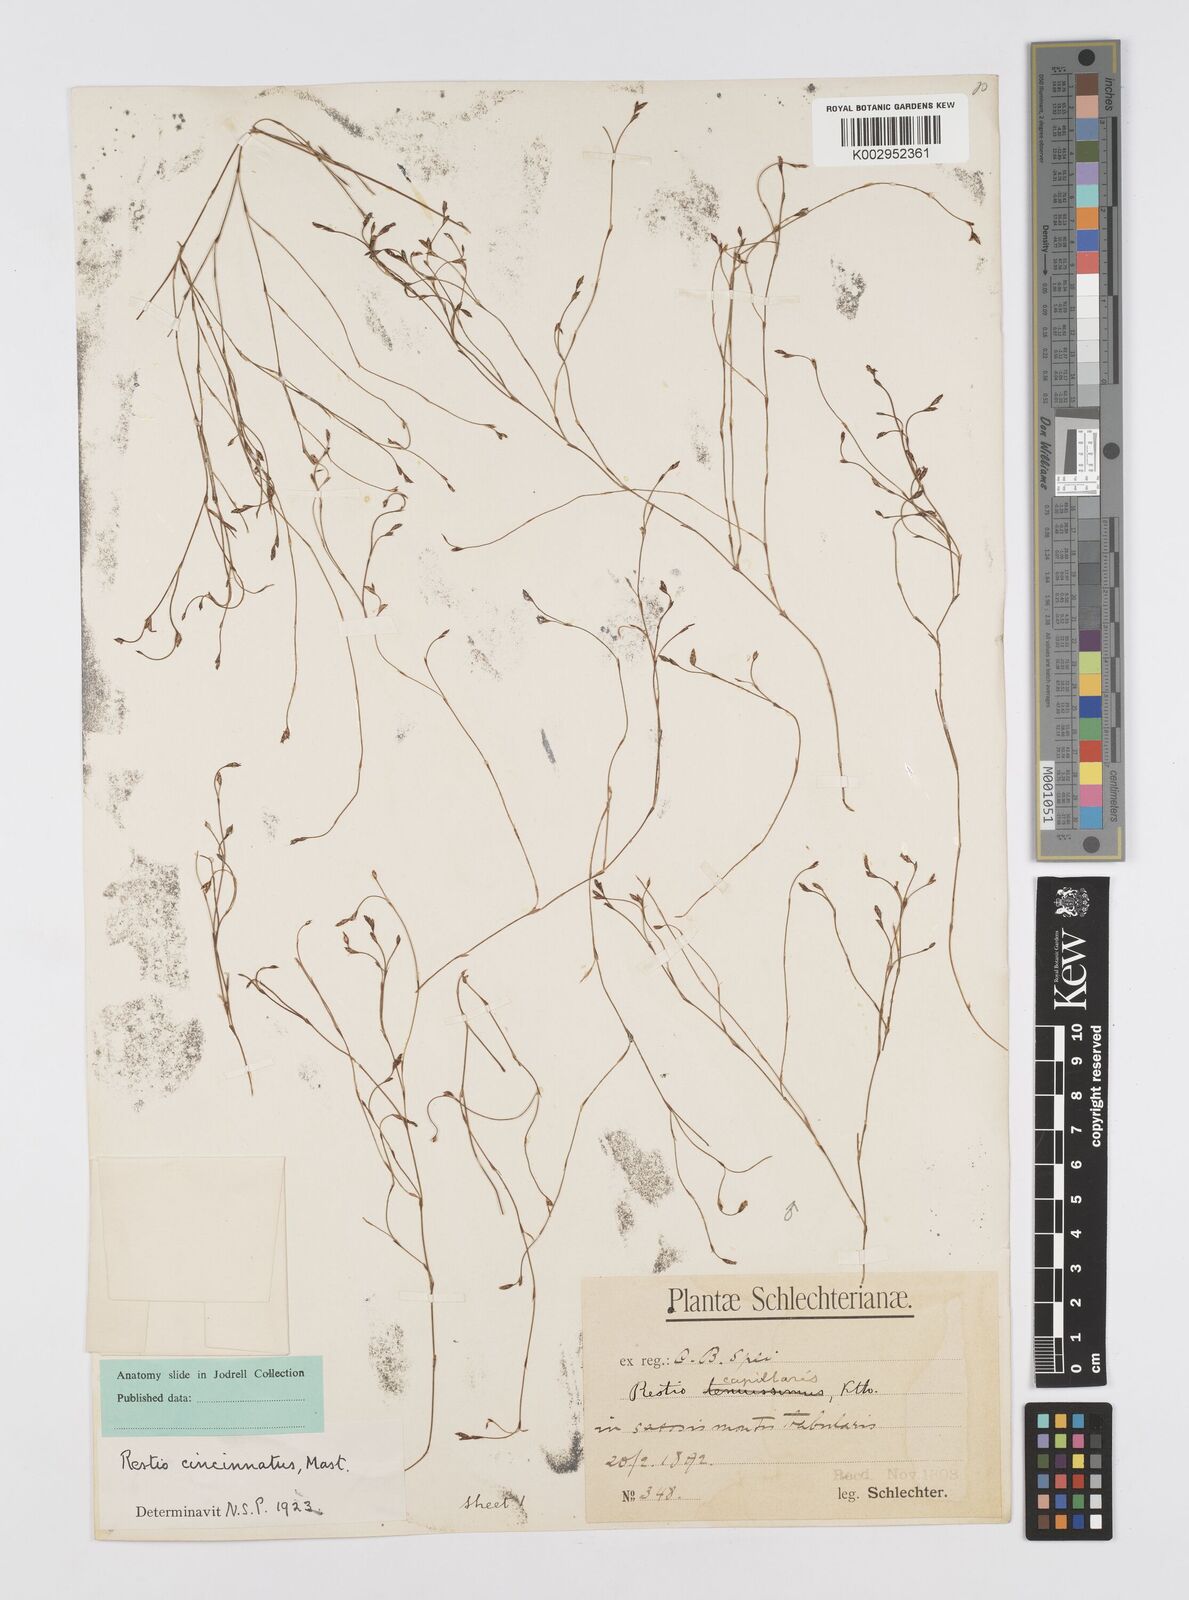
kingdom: Plantae
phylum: Tracheophyta
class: Liliopsida
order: Poales
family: Restionaceae
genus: Restio
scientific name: Restio cincinnatus
